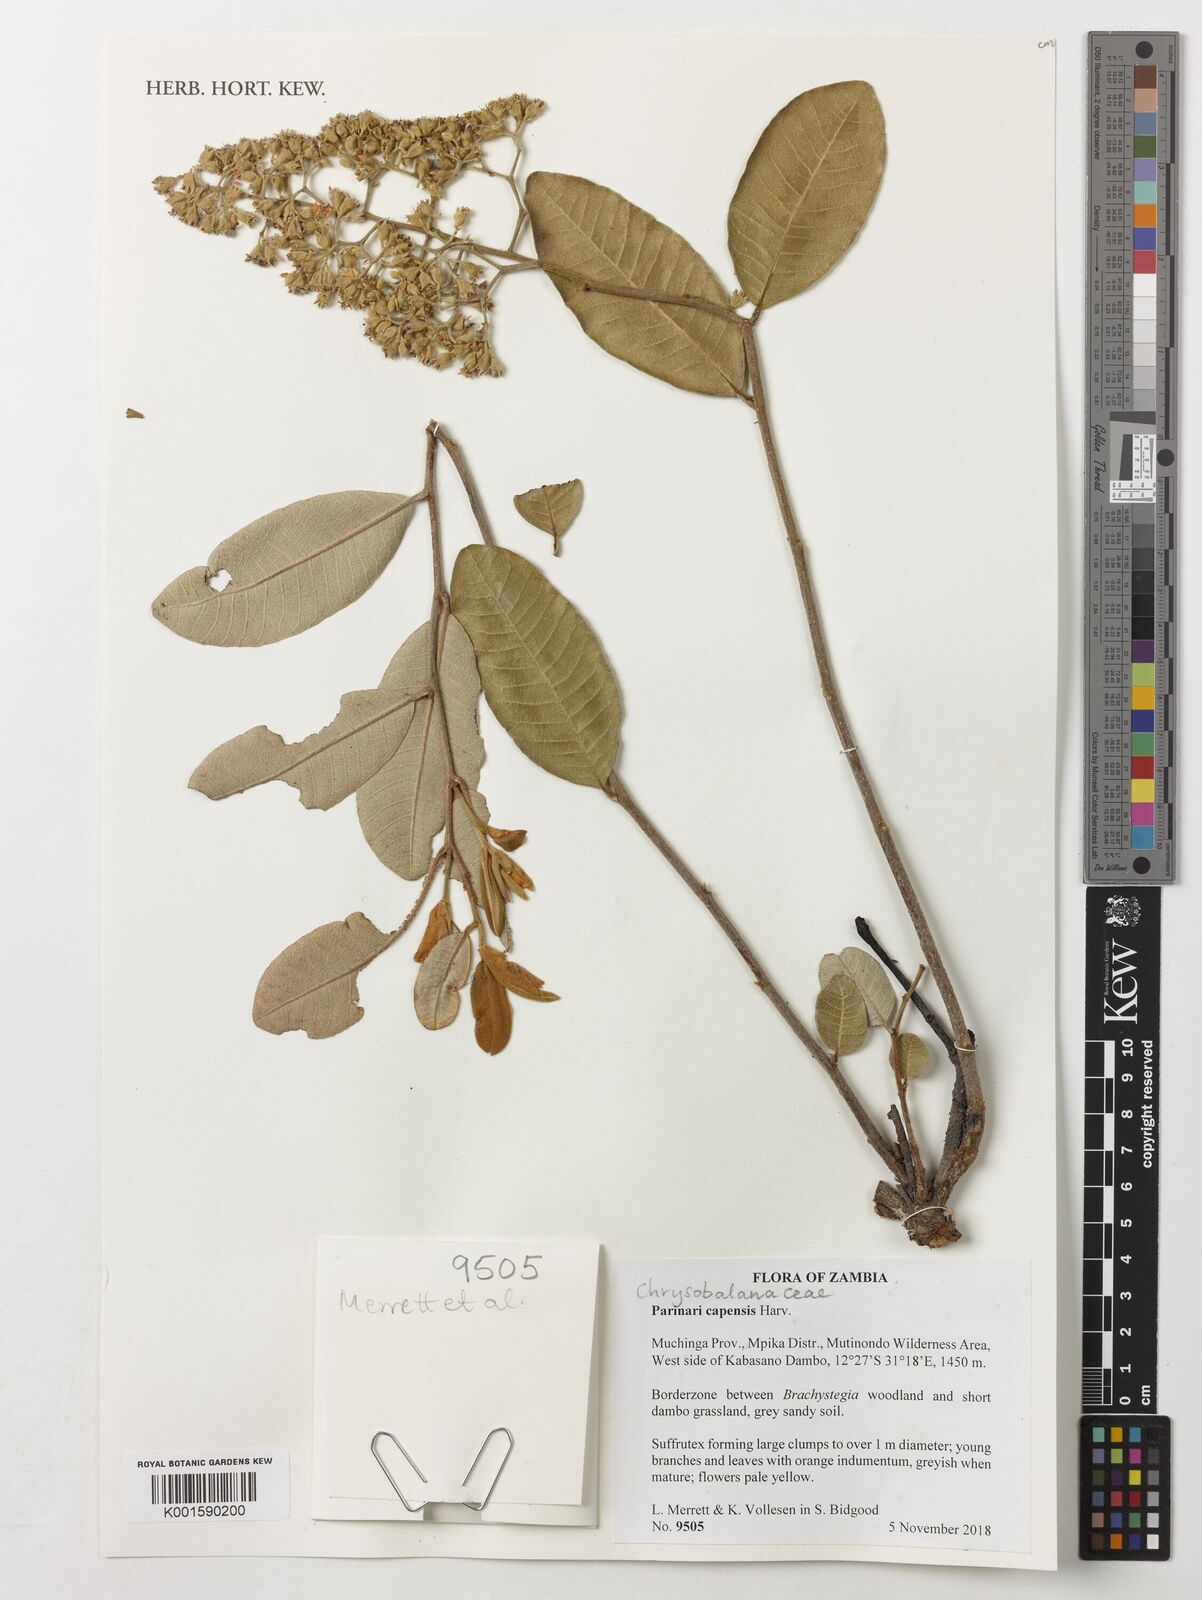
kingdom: Plantae
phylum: Tracheophyta
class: Magnoliopsida
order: Malpighiales
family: Chrysobalanaceae
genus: Parinari
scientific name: Parinari capensis
